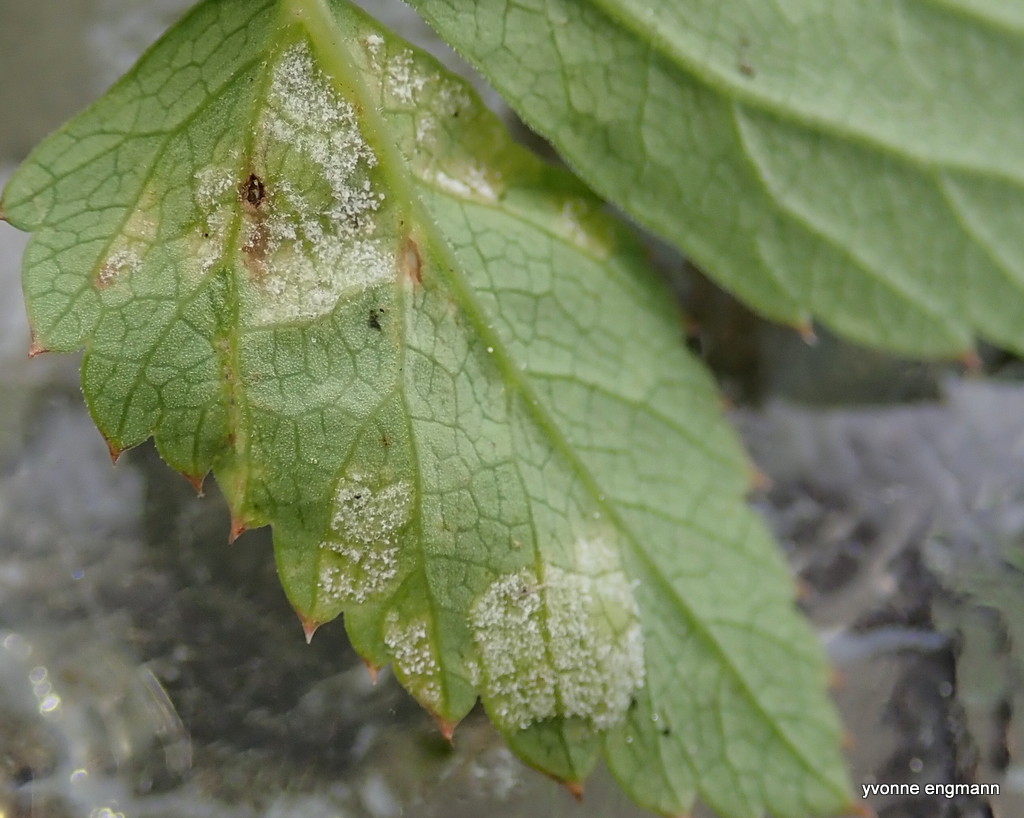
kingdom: Chromista
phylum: Oomycota
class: Peronosporea
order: Peronosporales
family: Peronosporaceae
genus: Peronospora
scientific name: Peronospora crustosa
